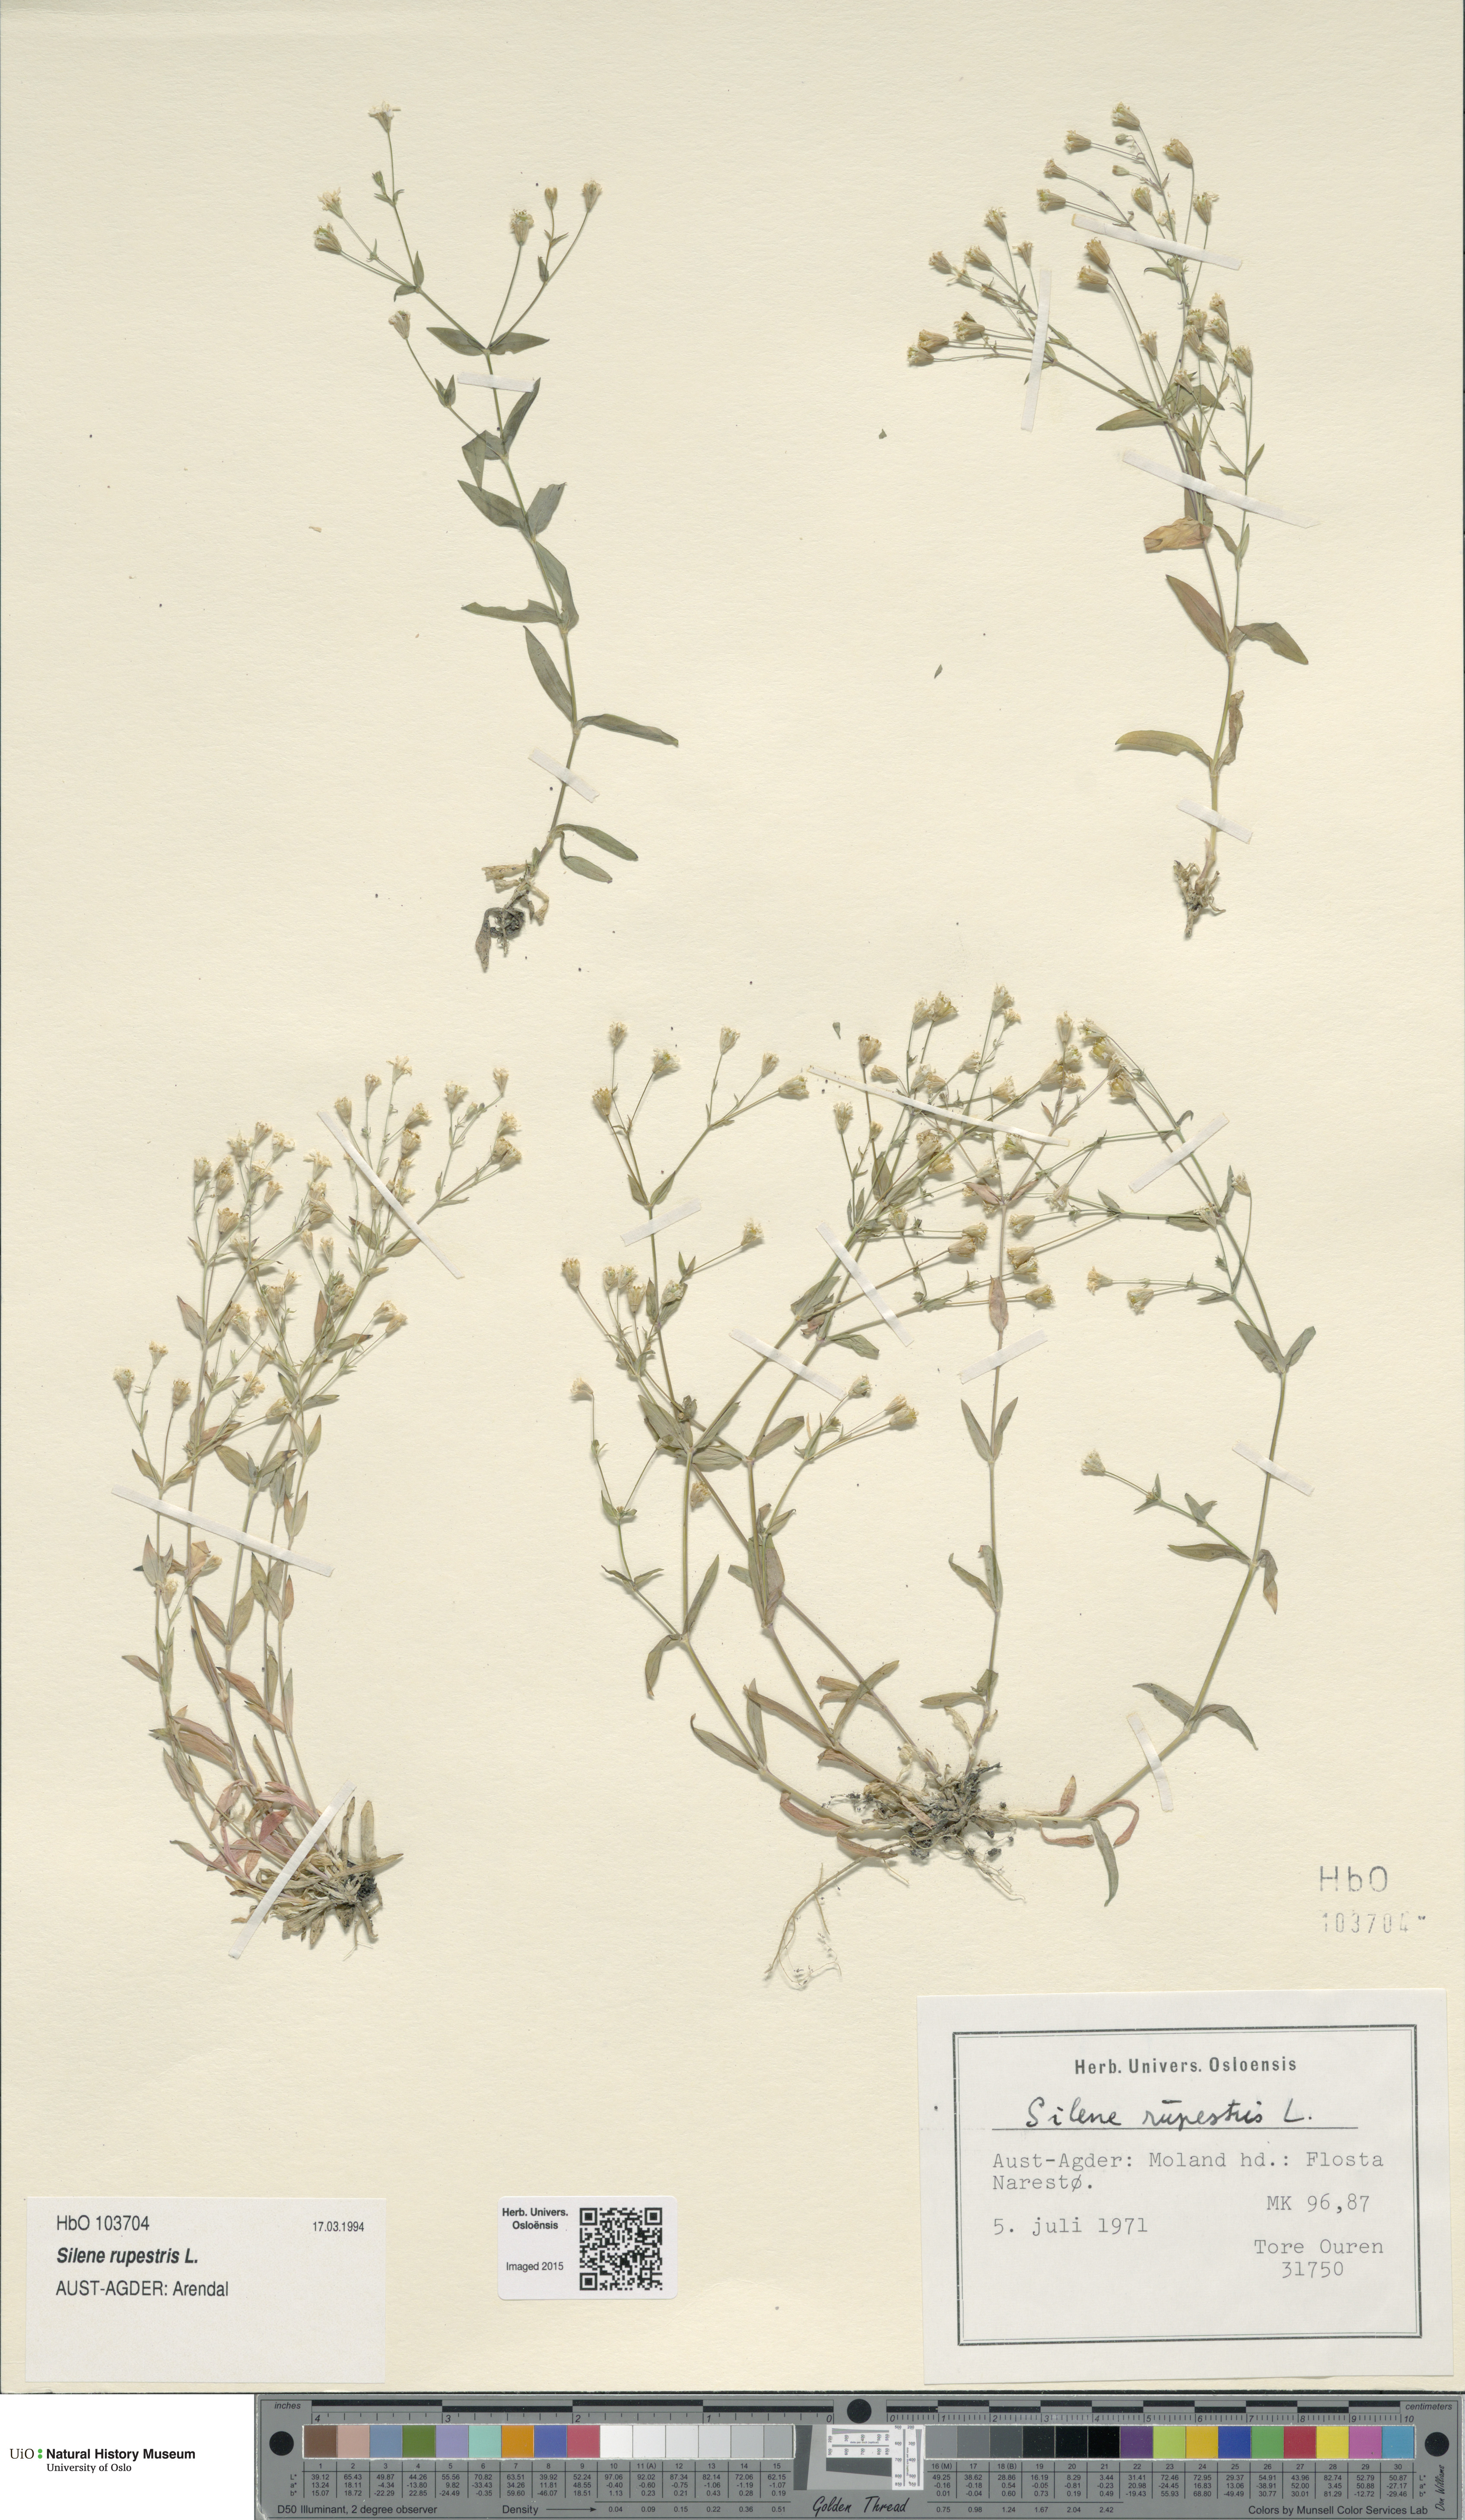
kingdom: Plantae
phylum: Tracheophyta
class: Magnoliopsida
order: Caryophyllales
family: Caryophyllaceae
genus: Atocion
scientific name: Atocion rupestre
